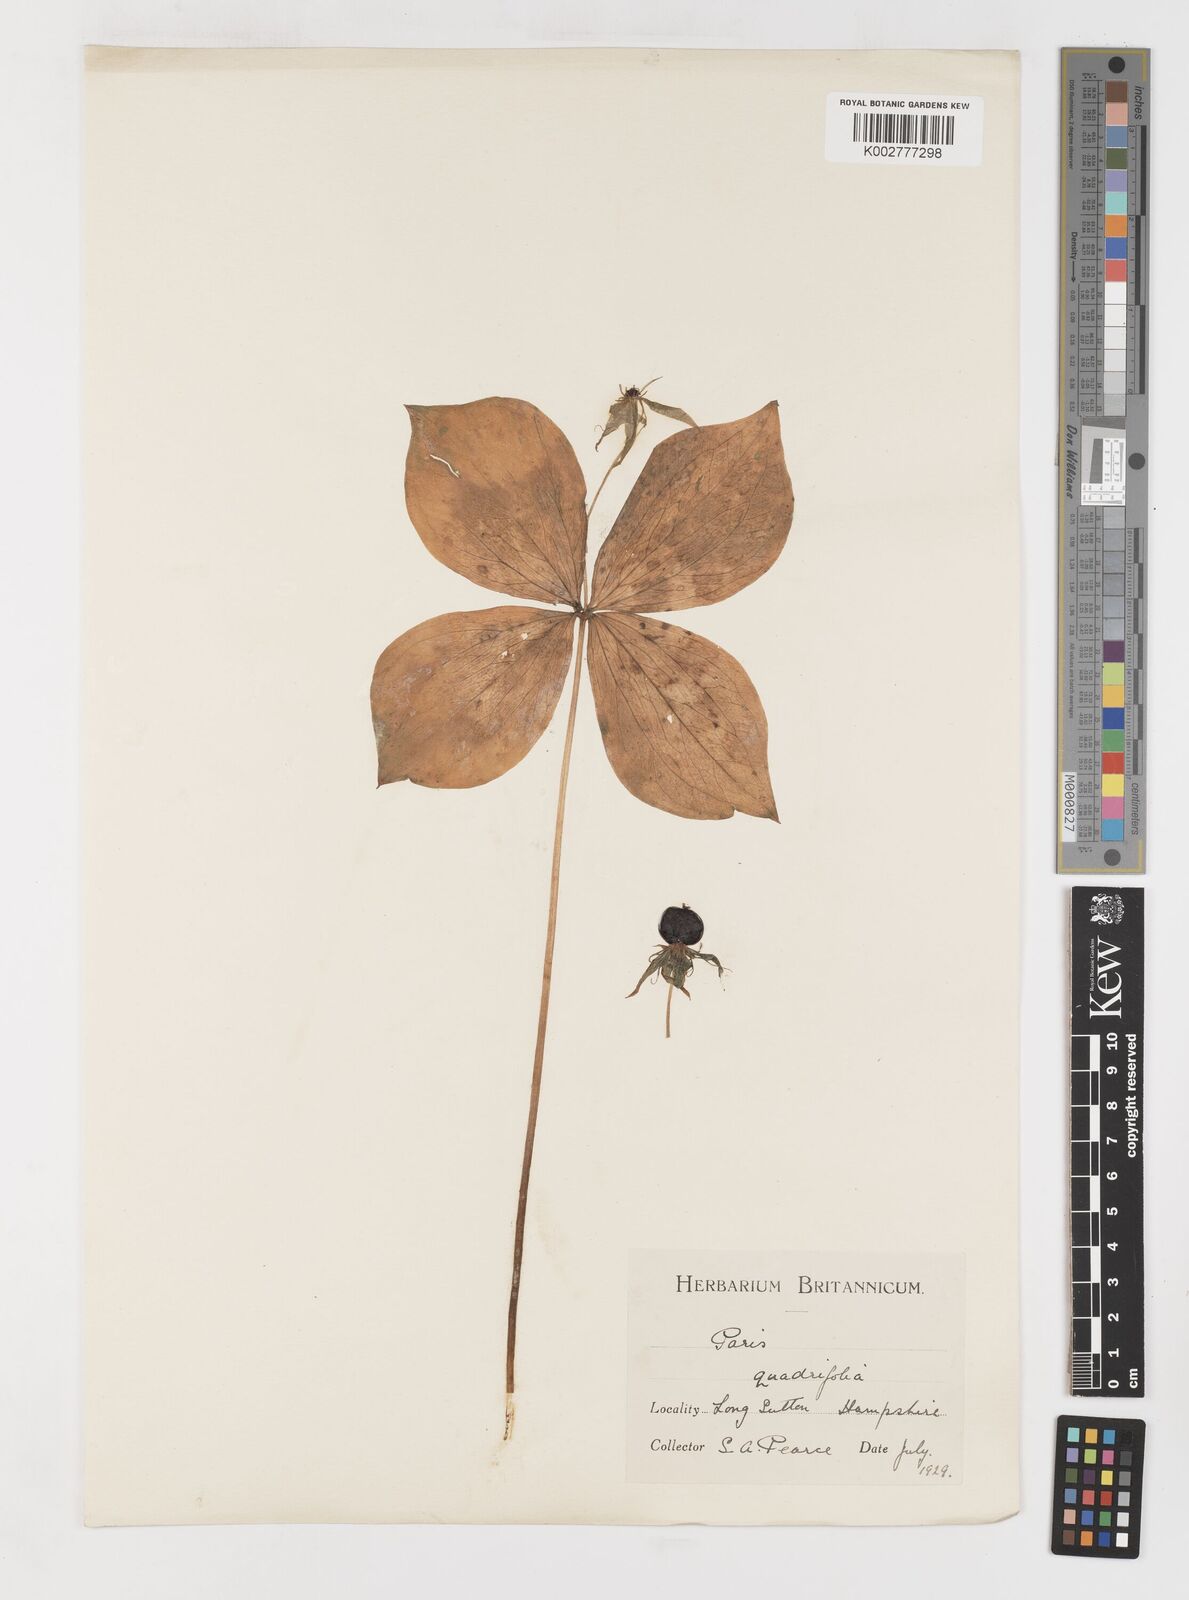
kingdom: Plantae
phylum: Tracheophyta
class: Liliopsida
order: Liliales
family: Melanthiaceae
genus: Paris
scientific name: Paris quadrifolia
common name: Herb-paris
